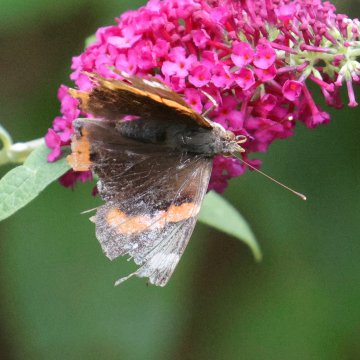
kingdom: Animalia
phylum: Arthropoda
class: Insecta
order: Lepidoptera
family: Nymphalidae
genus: Vanessa
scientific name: Vanessa atalanta
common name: Red Admiral
